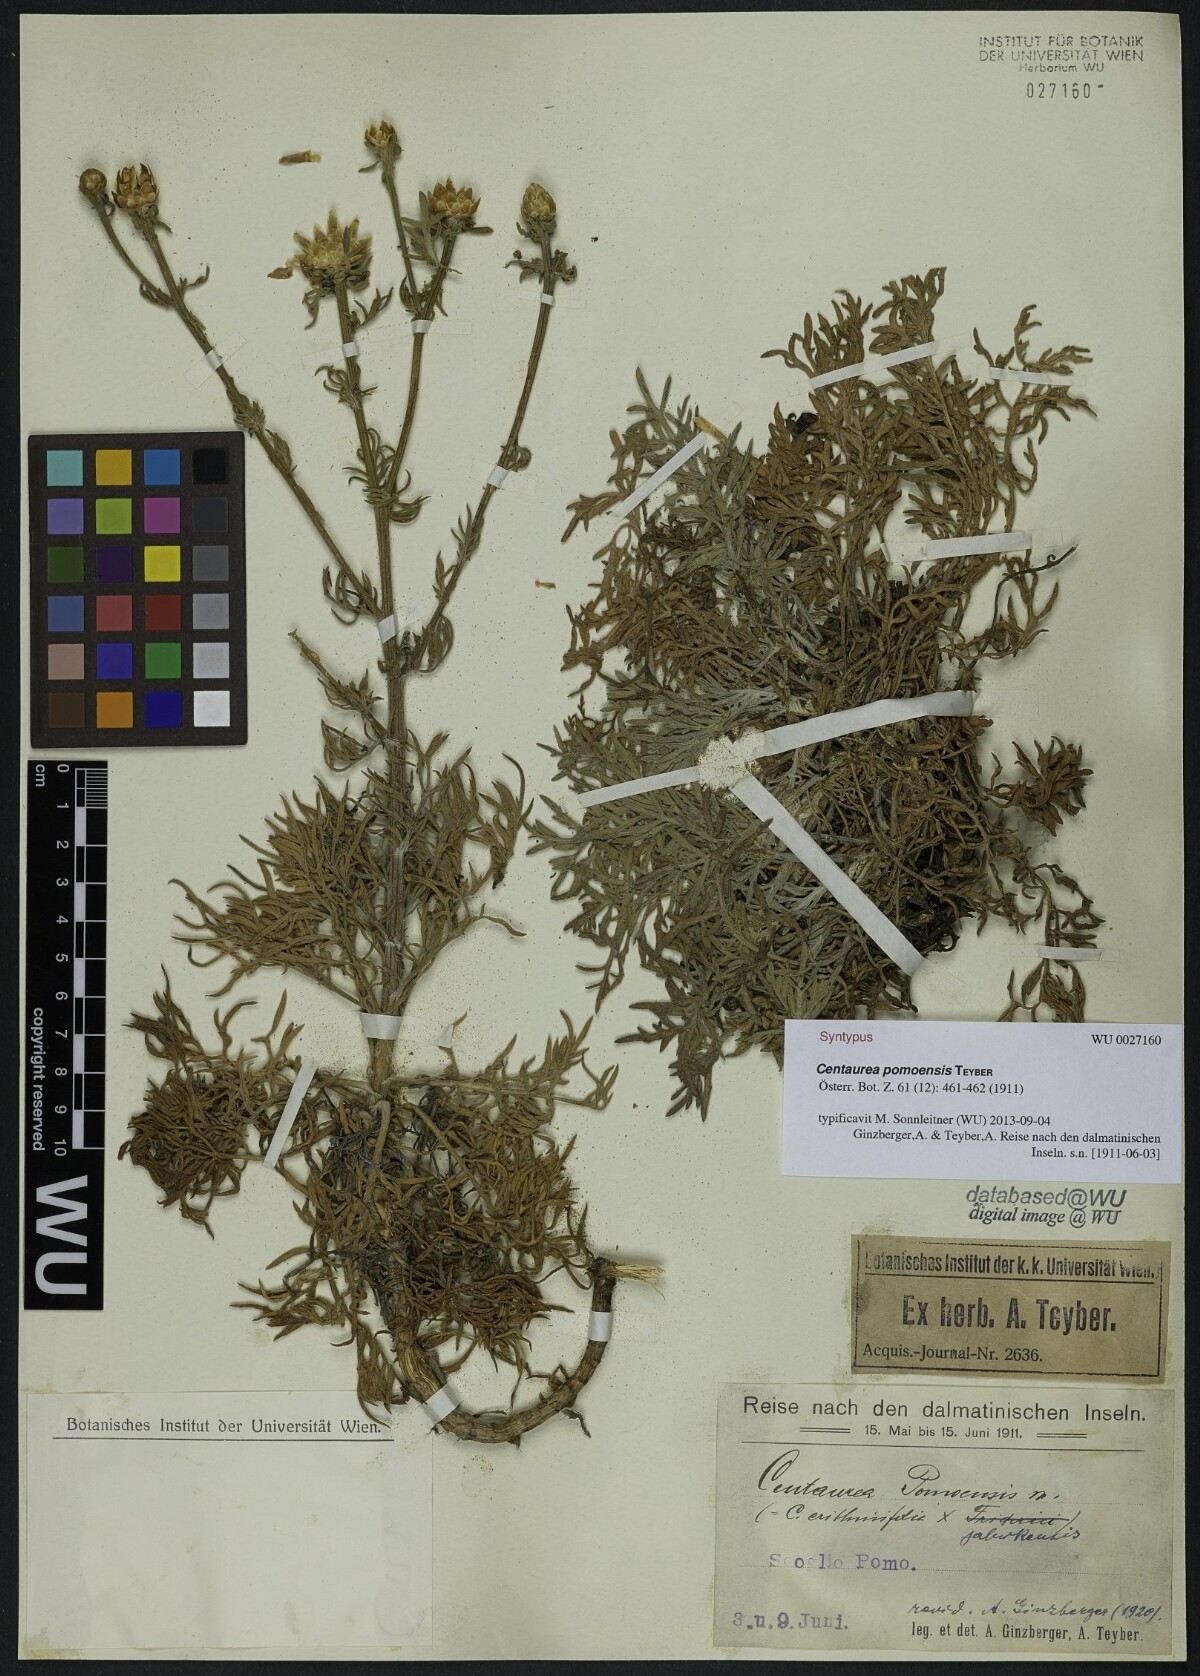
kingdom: Plantae
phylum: Tracheophyta
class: Magnoliopsida
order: Asterales
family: Asteraceae
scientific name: Asteraceae
